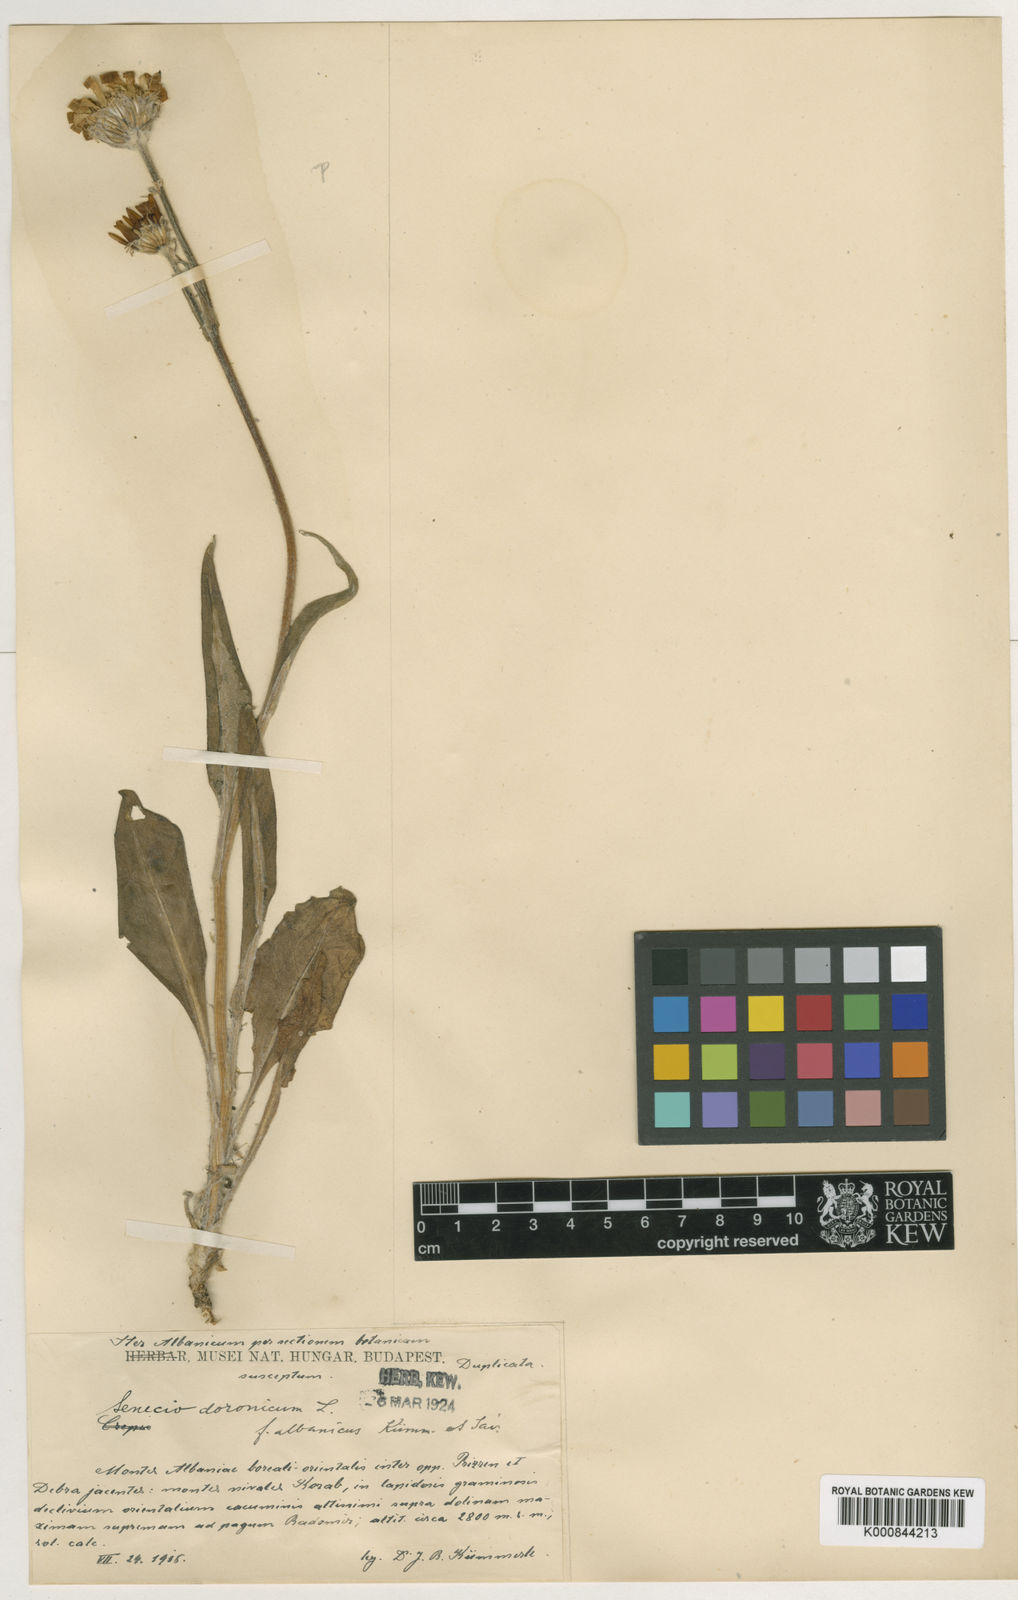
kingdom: Plantae
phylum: Tracheophyta
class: Magnoliopsida
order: Asterales
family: Asteraceae
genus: Senecio
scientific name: Senecio doronicum
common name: Chamois ragwort
